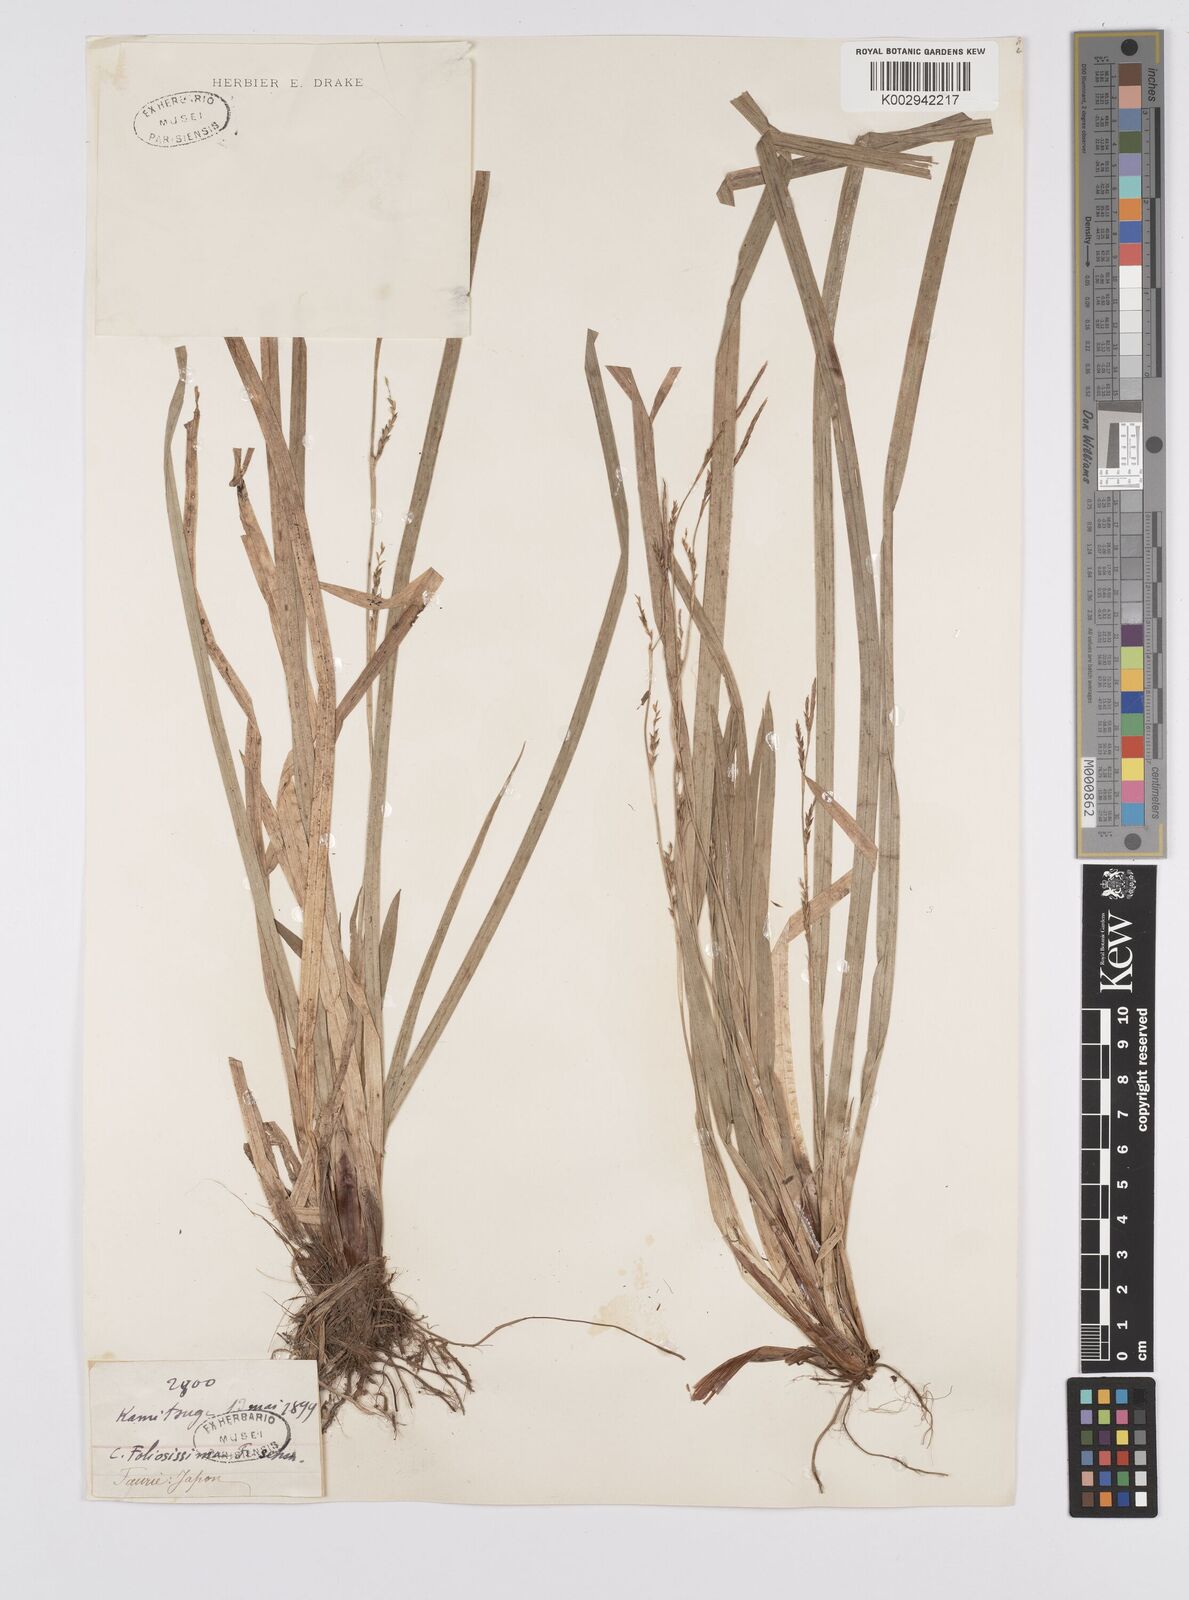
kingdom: Plantae
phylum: Tracheophyta
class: Liliopsida
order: Poales
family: Cyperaceae
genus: Carex
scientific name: Carex morrowii
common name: Japanese sedge
